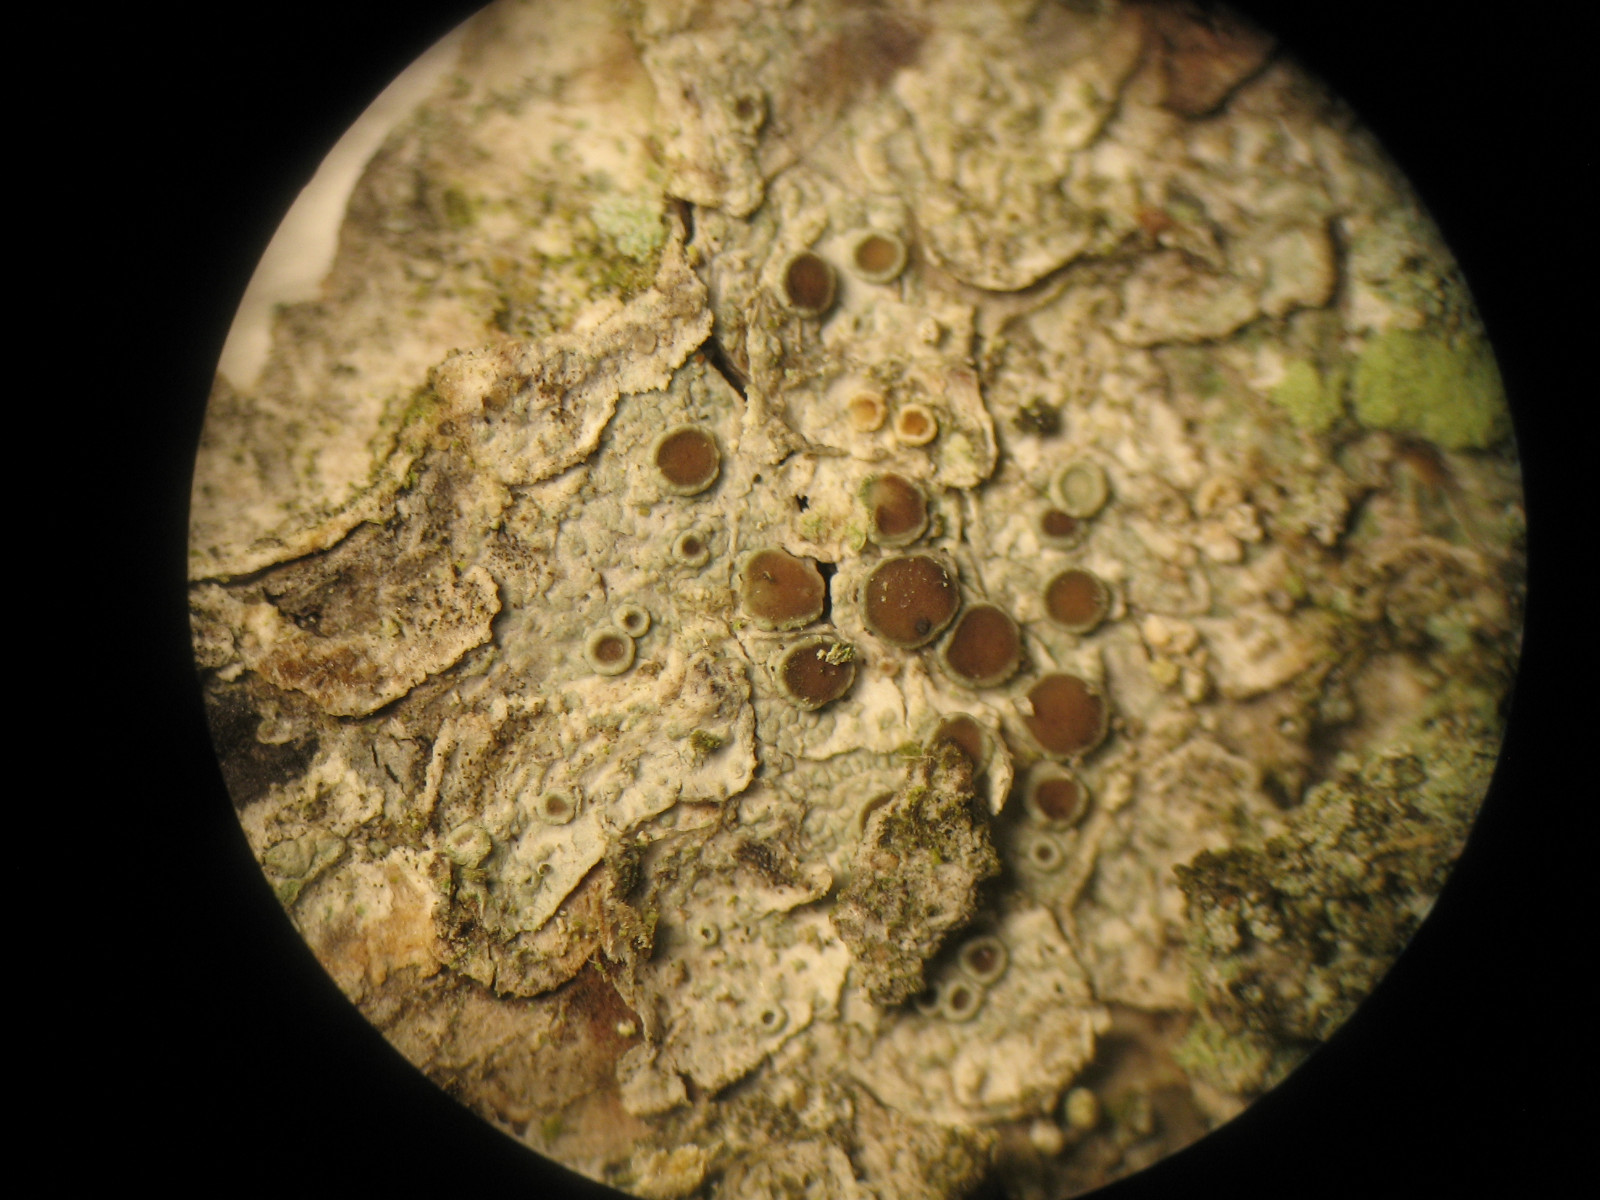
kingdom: Fungi
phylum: Ascomycota
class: Lecanoromycetes
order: Lecanorales
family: Lecanoraceae
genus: Lecanora
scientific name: Lecanora pulicaris
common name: almindelig kantskivelav
